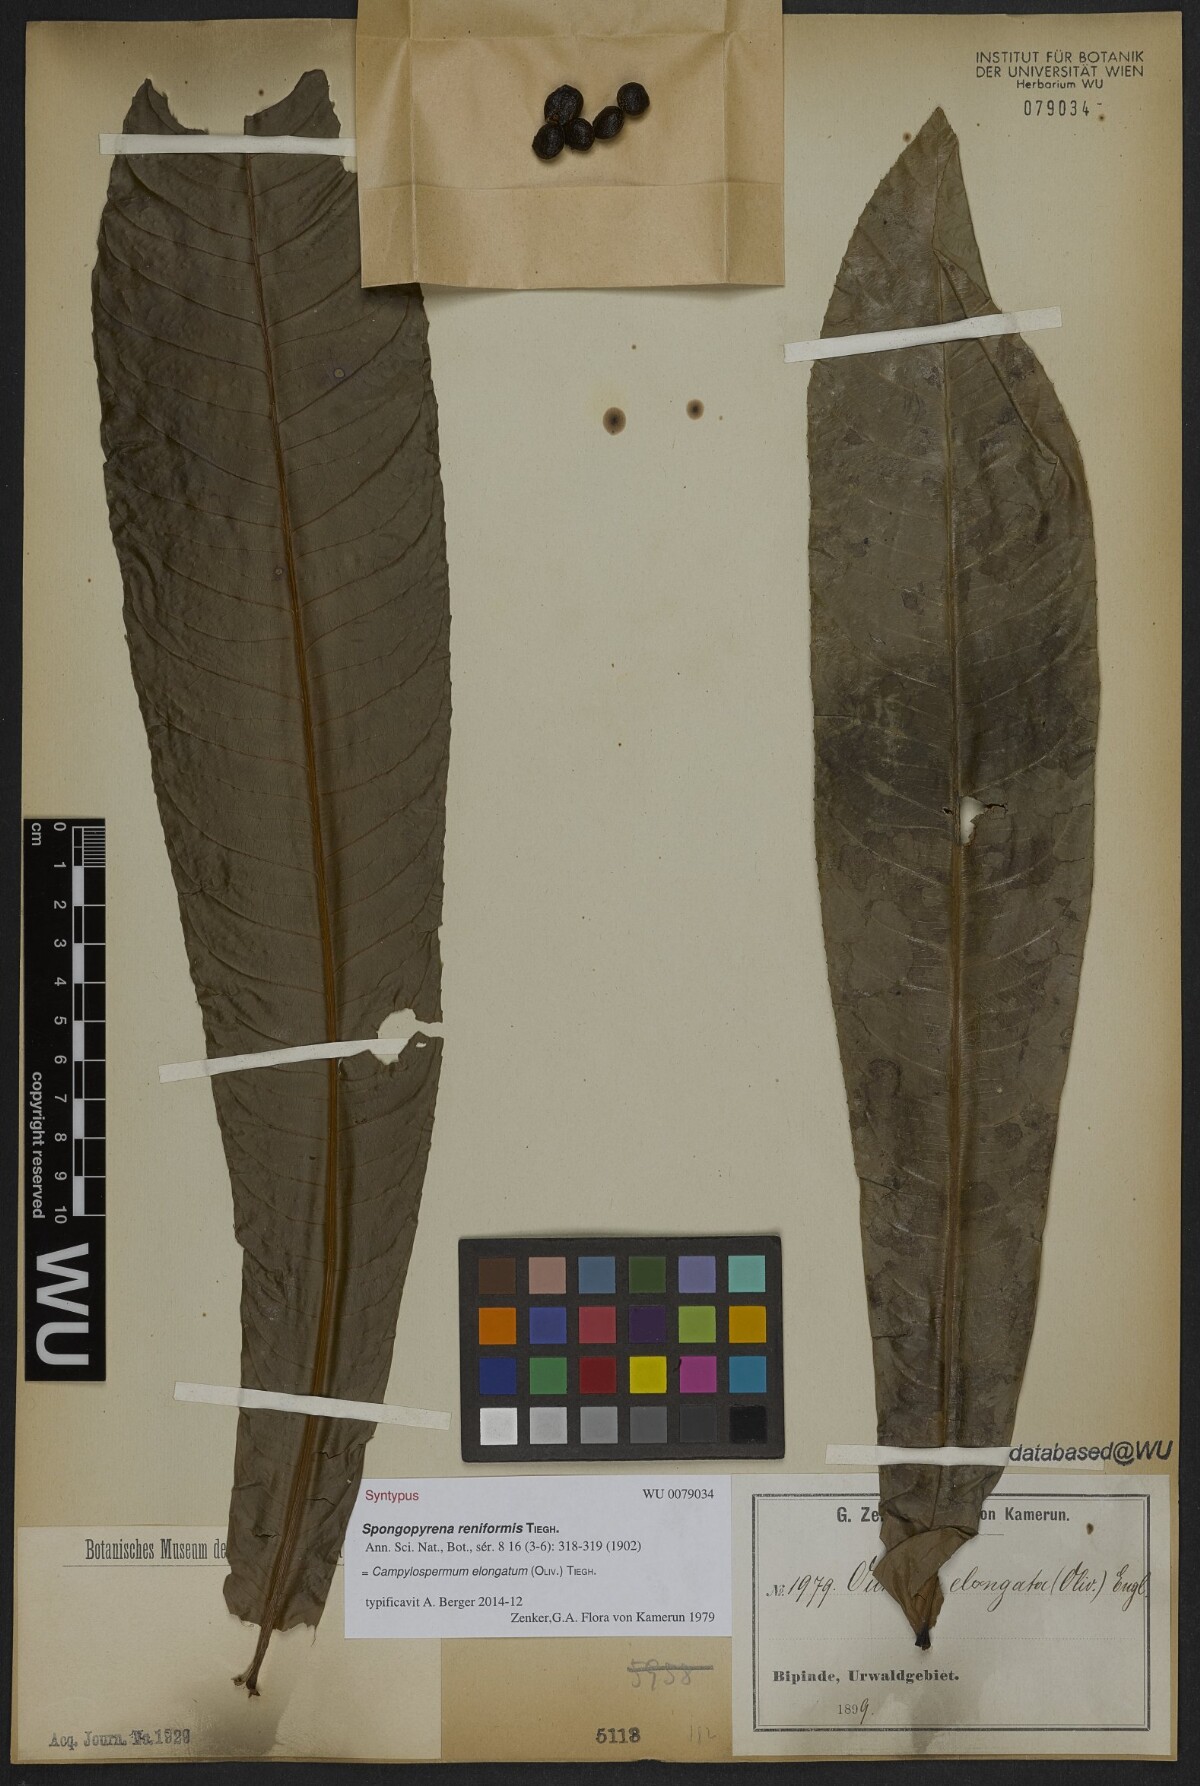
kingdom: Plantae
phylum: Tracheophyta
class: Magnoliopsida
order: Malpighiales
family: Ochnaceae
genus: Gomphia
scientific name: Gomphia elongata
